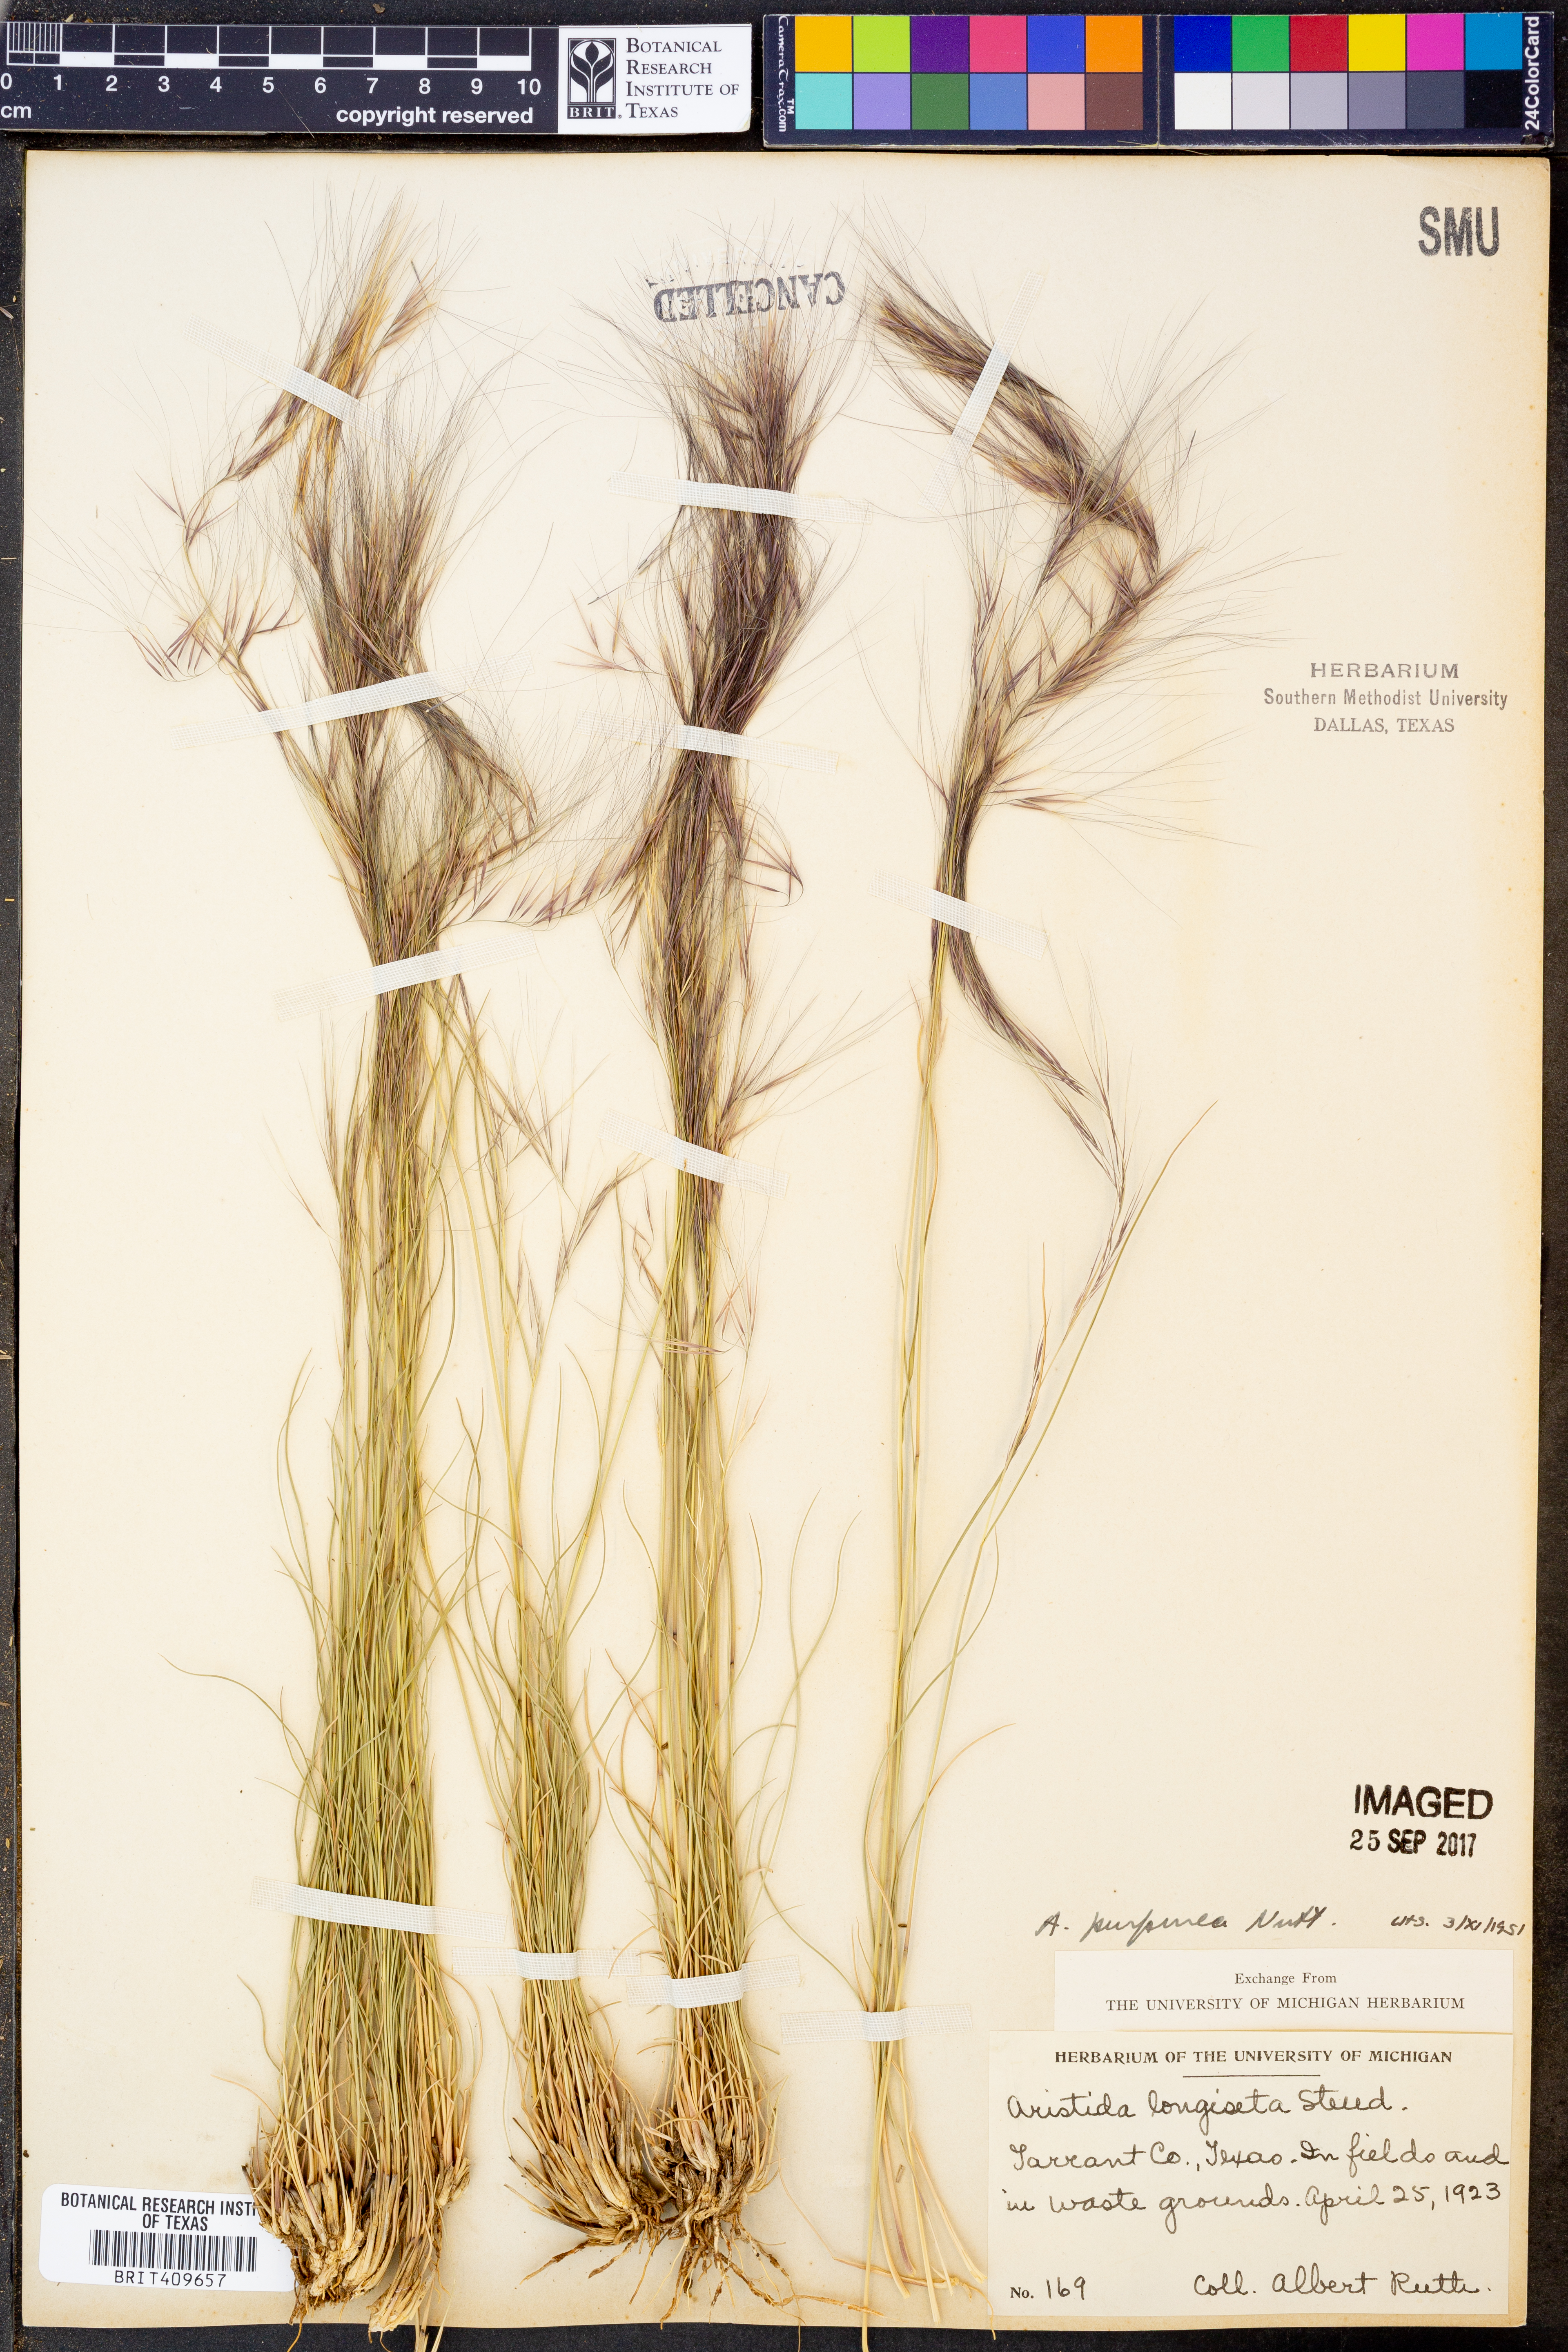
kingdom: Plantae
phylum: Tracheophyta
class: Liliopsida
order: Poales
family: Poaceae
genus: Aristida
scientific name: Aristida purpurea
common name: Purple threeawn
